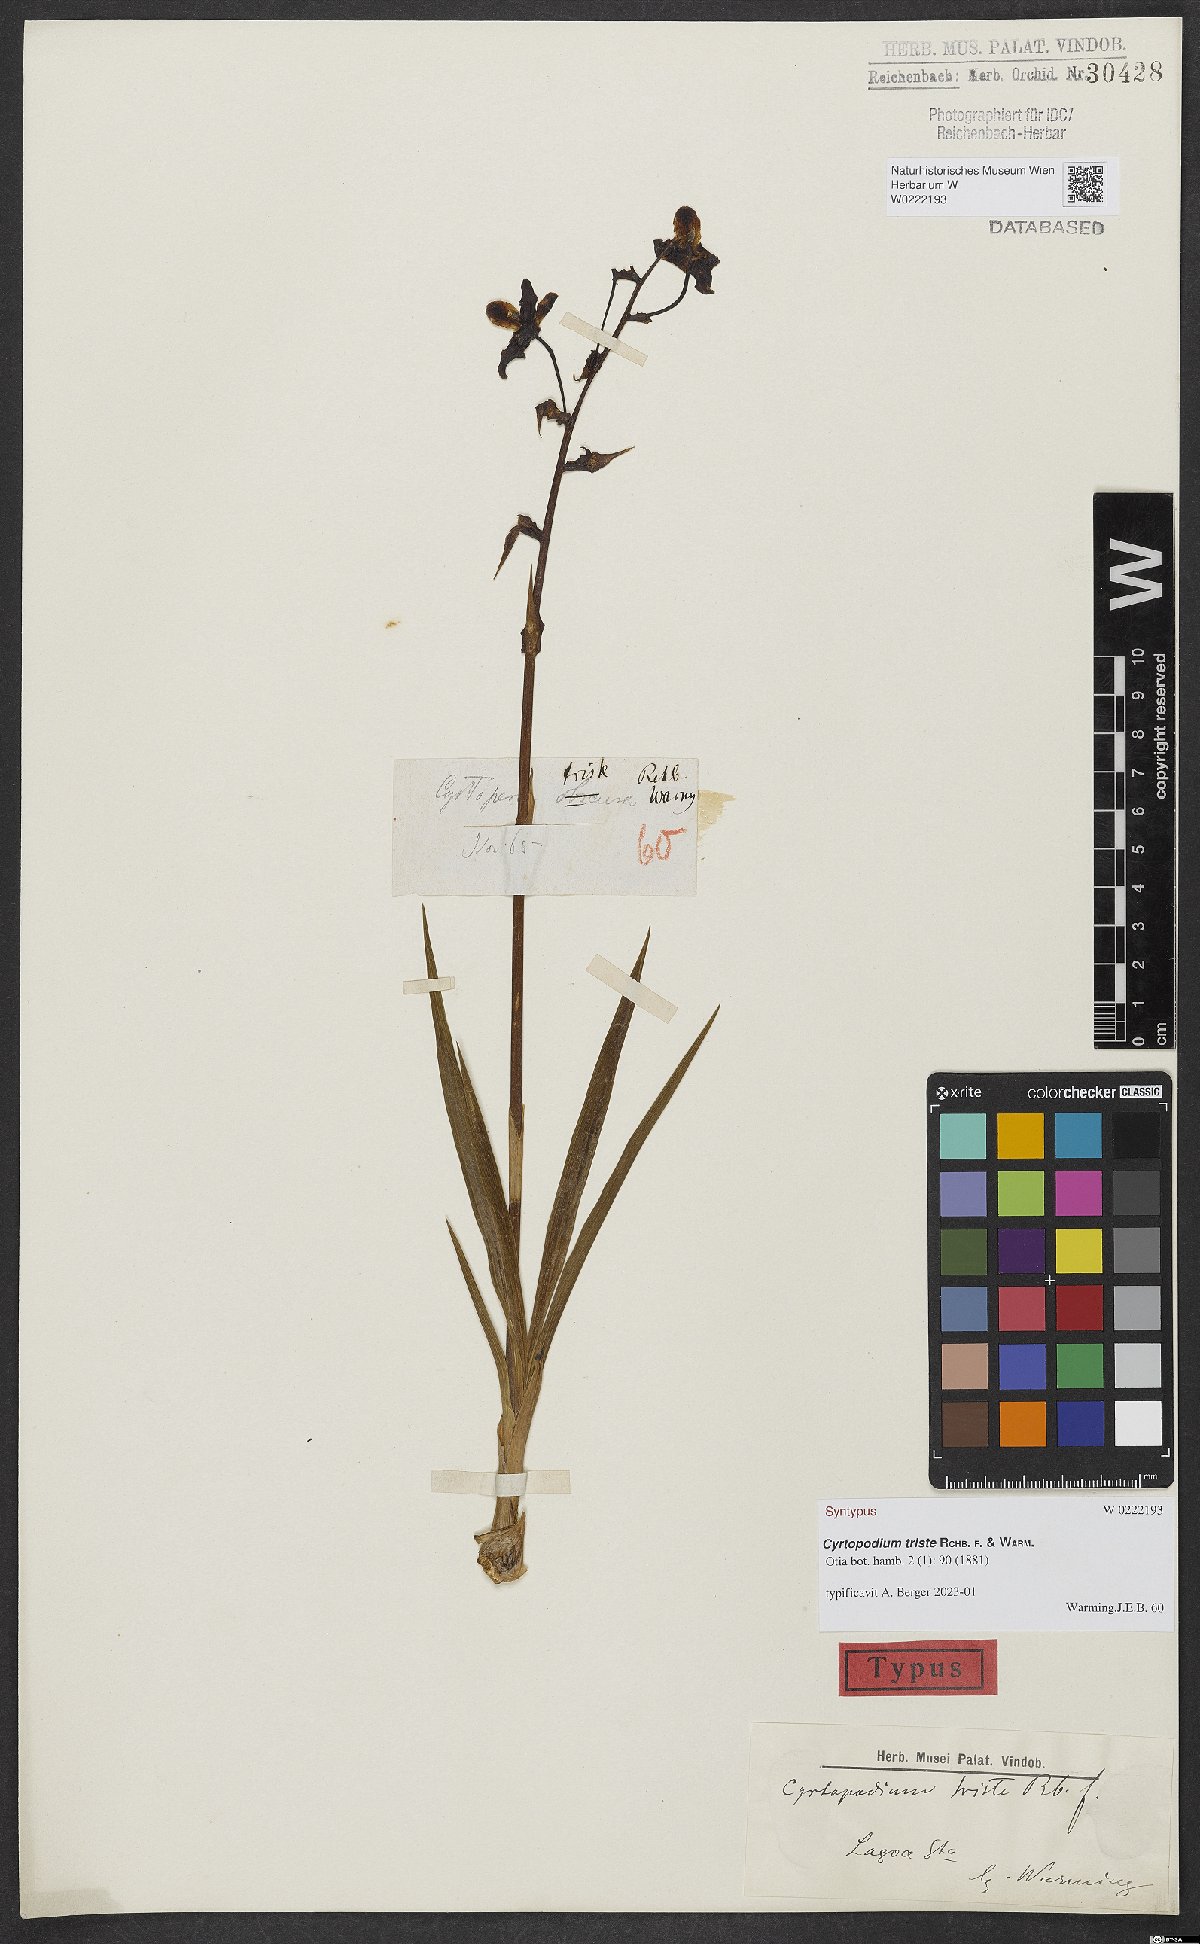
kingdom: Plantae
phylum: Tracheophyta
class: Liliopsida
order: Asparagales
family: Orchidaceae
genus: Cyrtopodium
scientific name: Cyrtopodium triste
